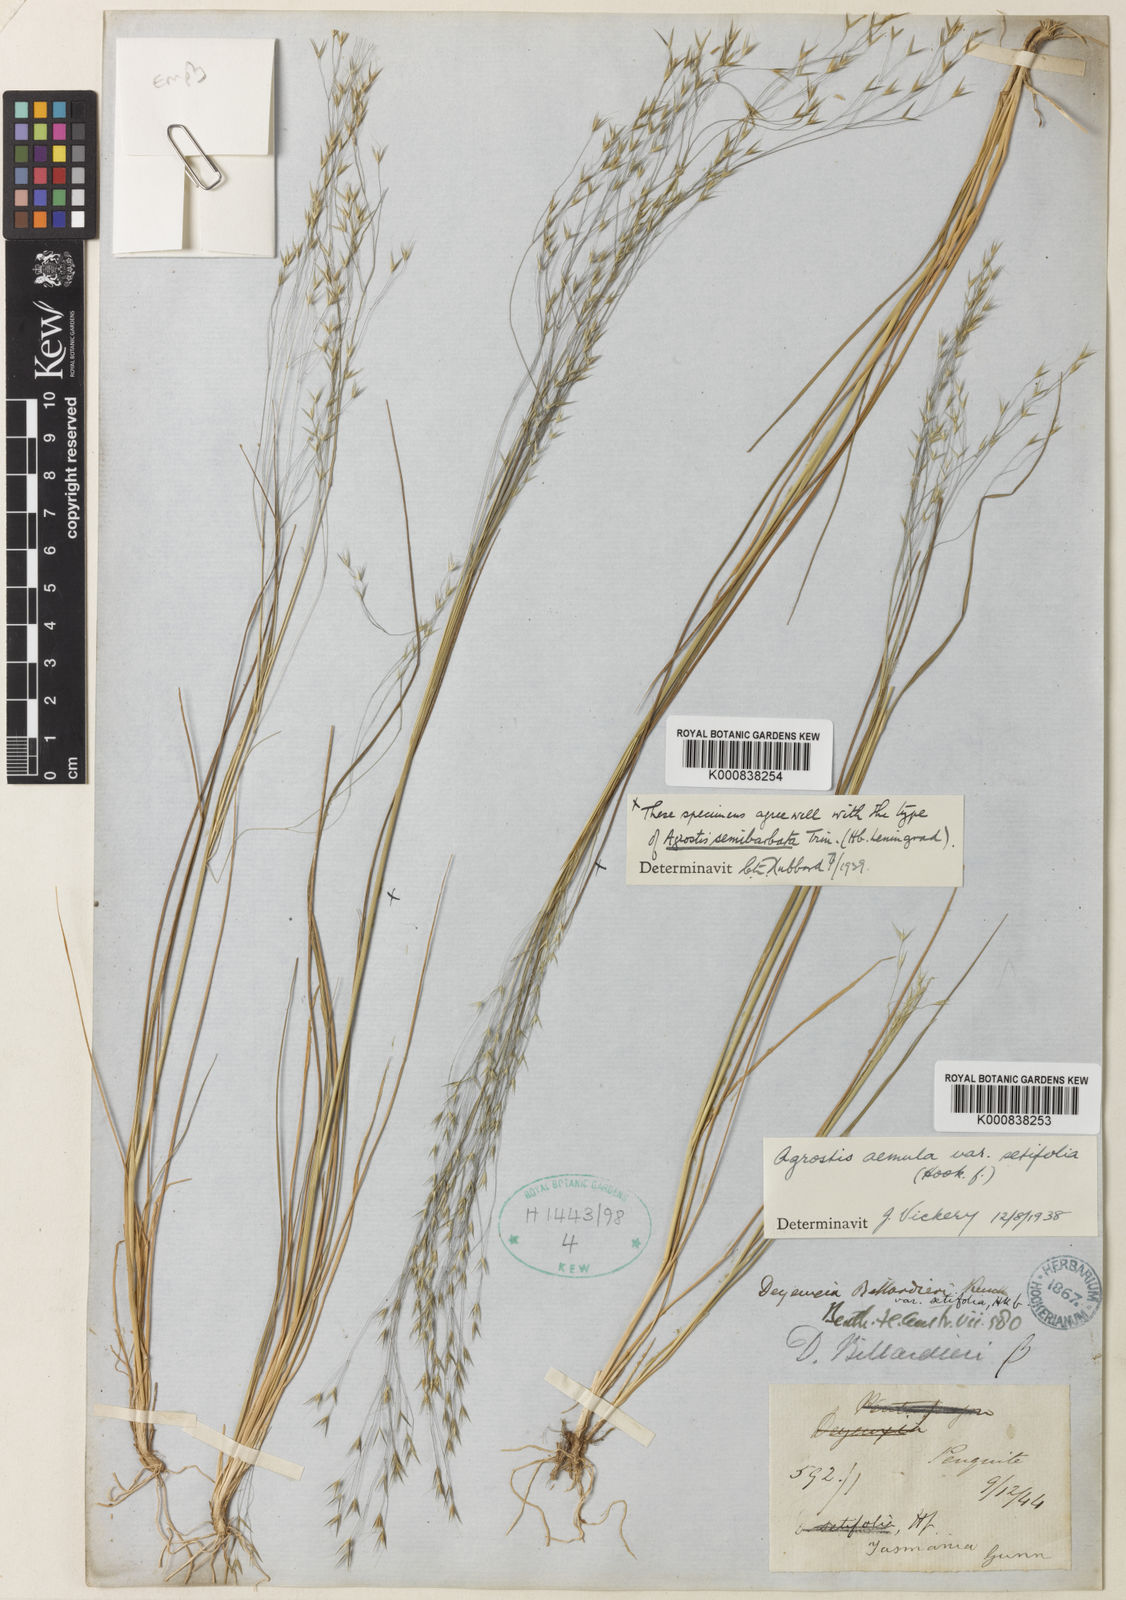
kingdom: Plantae
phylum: Tracheophyta
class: Liliopsida
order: Poales
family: Poaceae
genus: Lachnagrostis
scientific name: Lachnagrostis
